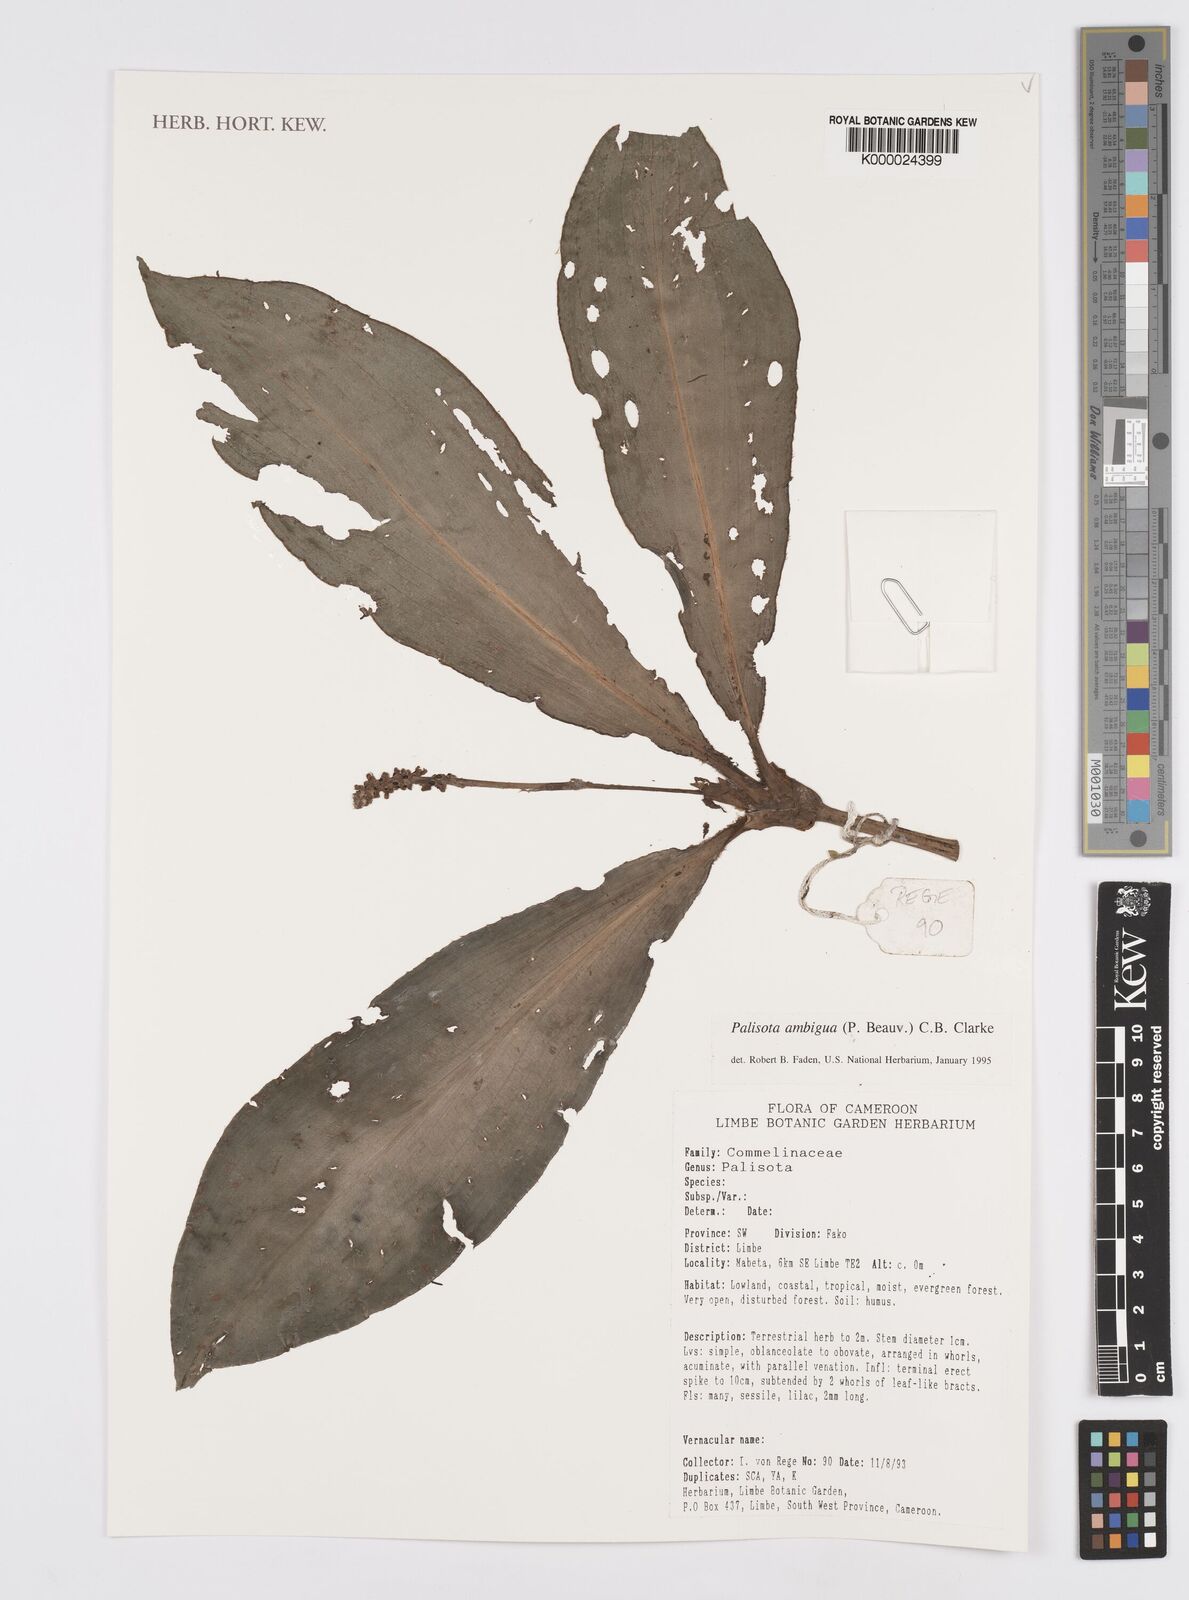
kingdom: Plantae
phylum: Tracheophyta
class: Liliopsida
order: Commelinales
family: Commelinaceae
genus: Palisota
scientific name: Palisota ambigua
